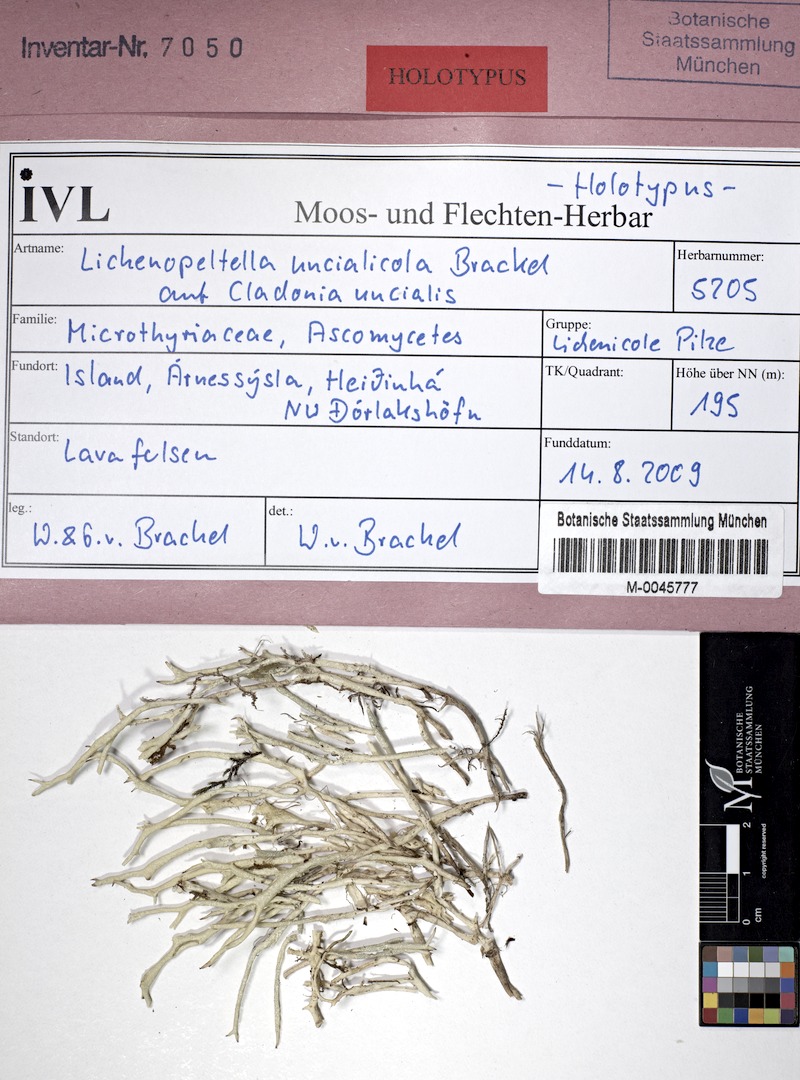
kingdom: Fungi
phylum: Ascomycota
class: Dothideomycetes
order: Microthyriales
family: Microthyriaceae
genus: Lichenopeltella
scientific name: Lichenopeltella uncialicola
